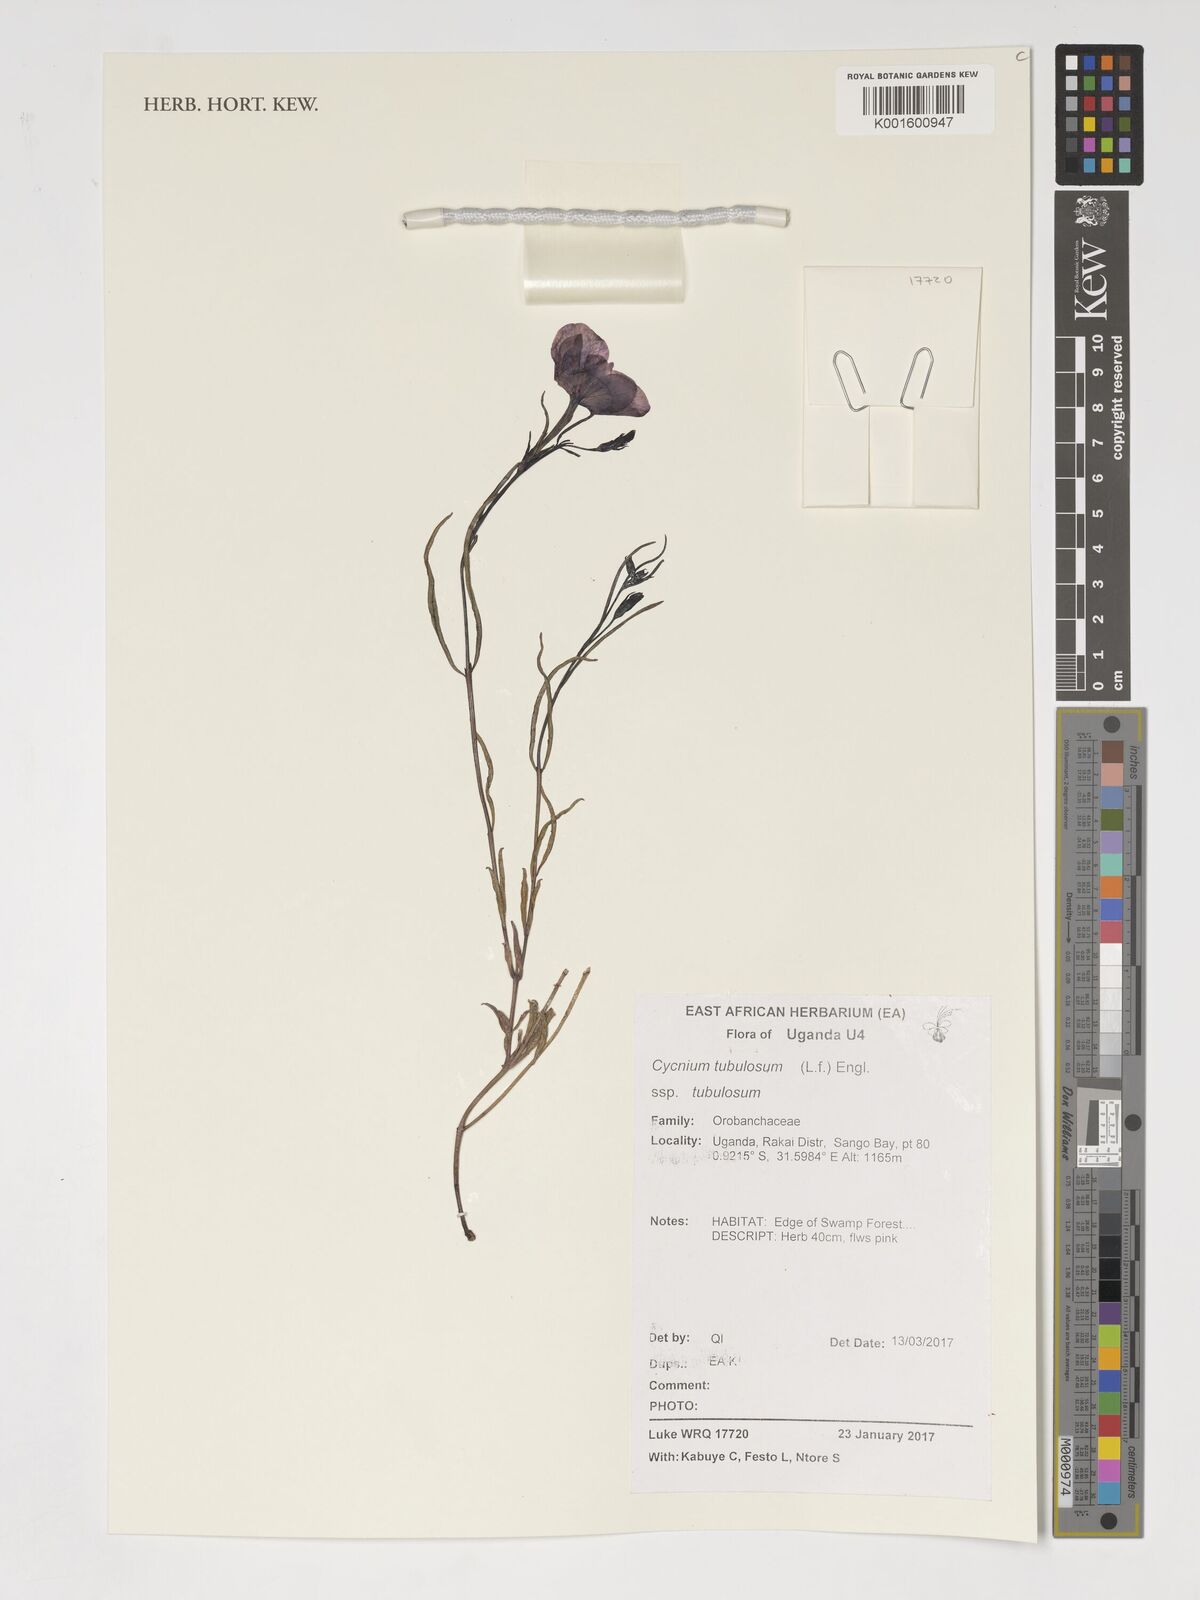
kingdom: Plantae
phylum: Tracheophyta
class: Magnoliopsida
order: Lamiales
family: Orobanchaceae
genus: Cycnium
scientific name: Cycnium tubulosum
